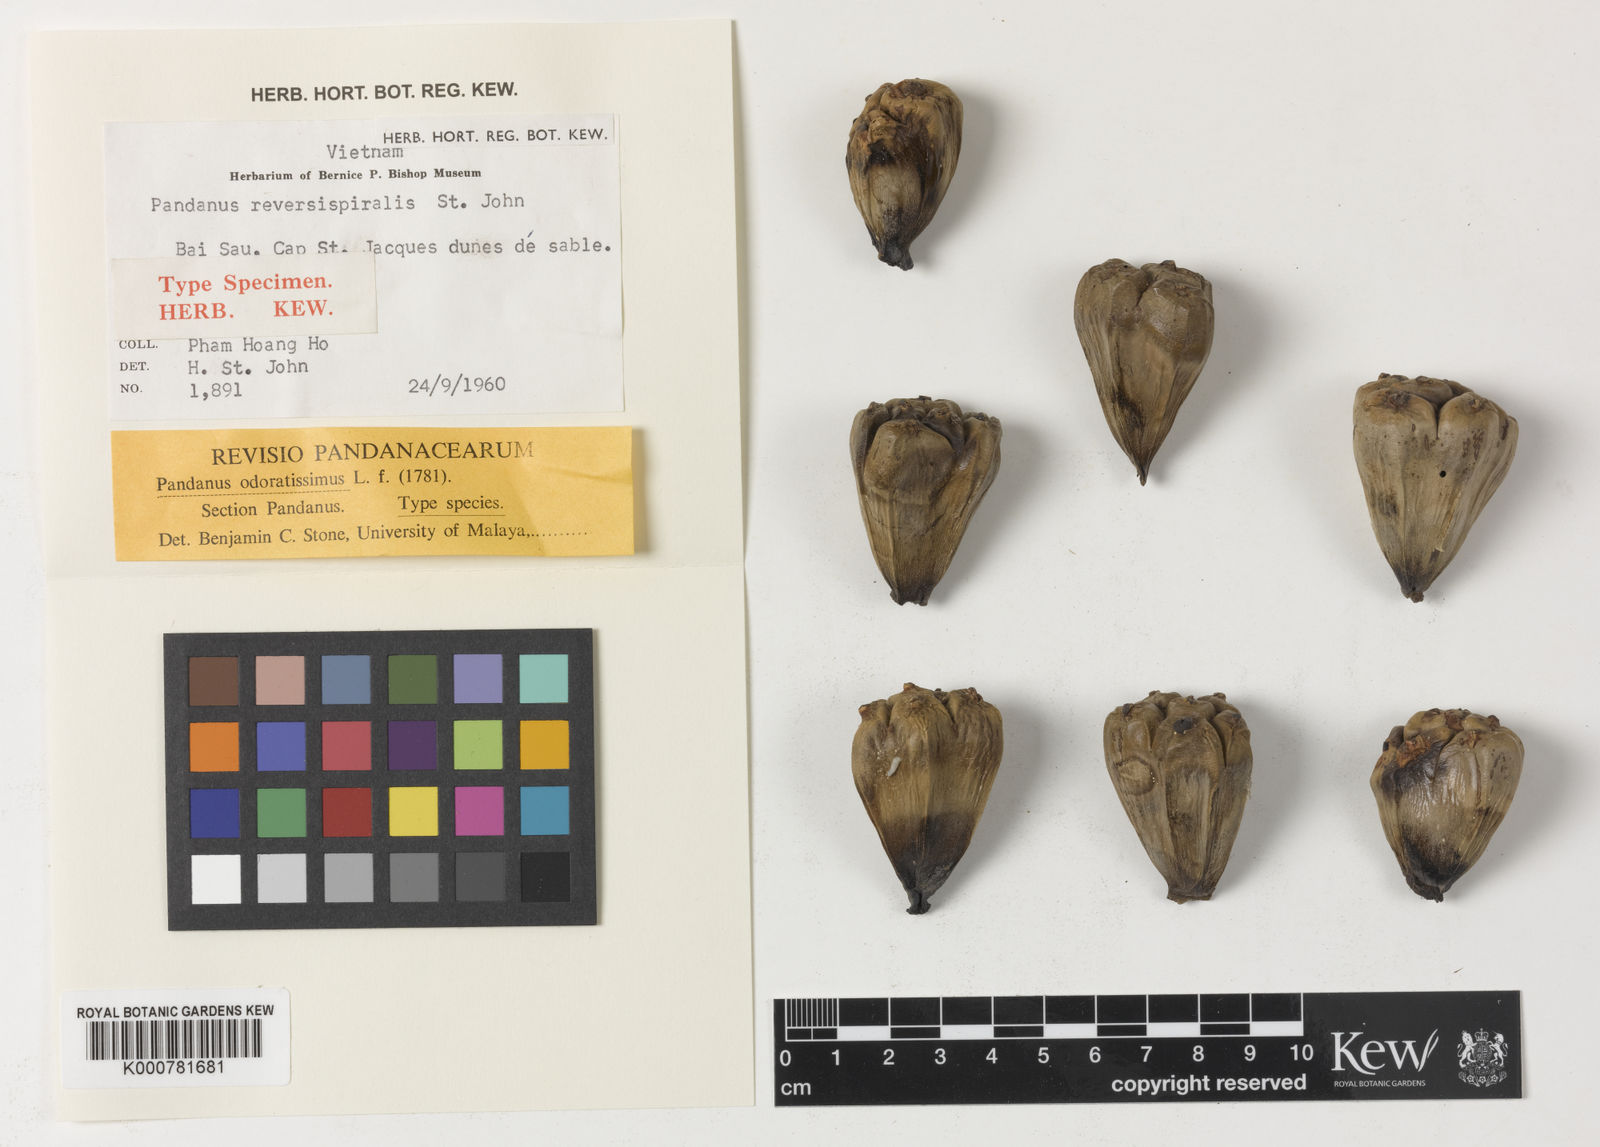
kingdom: Plantae
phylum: Tracheophyta
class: Liliopsida
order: Pandanales
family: Pandanaceae
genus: Pandanus
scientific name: Pandanus odorifer
